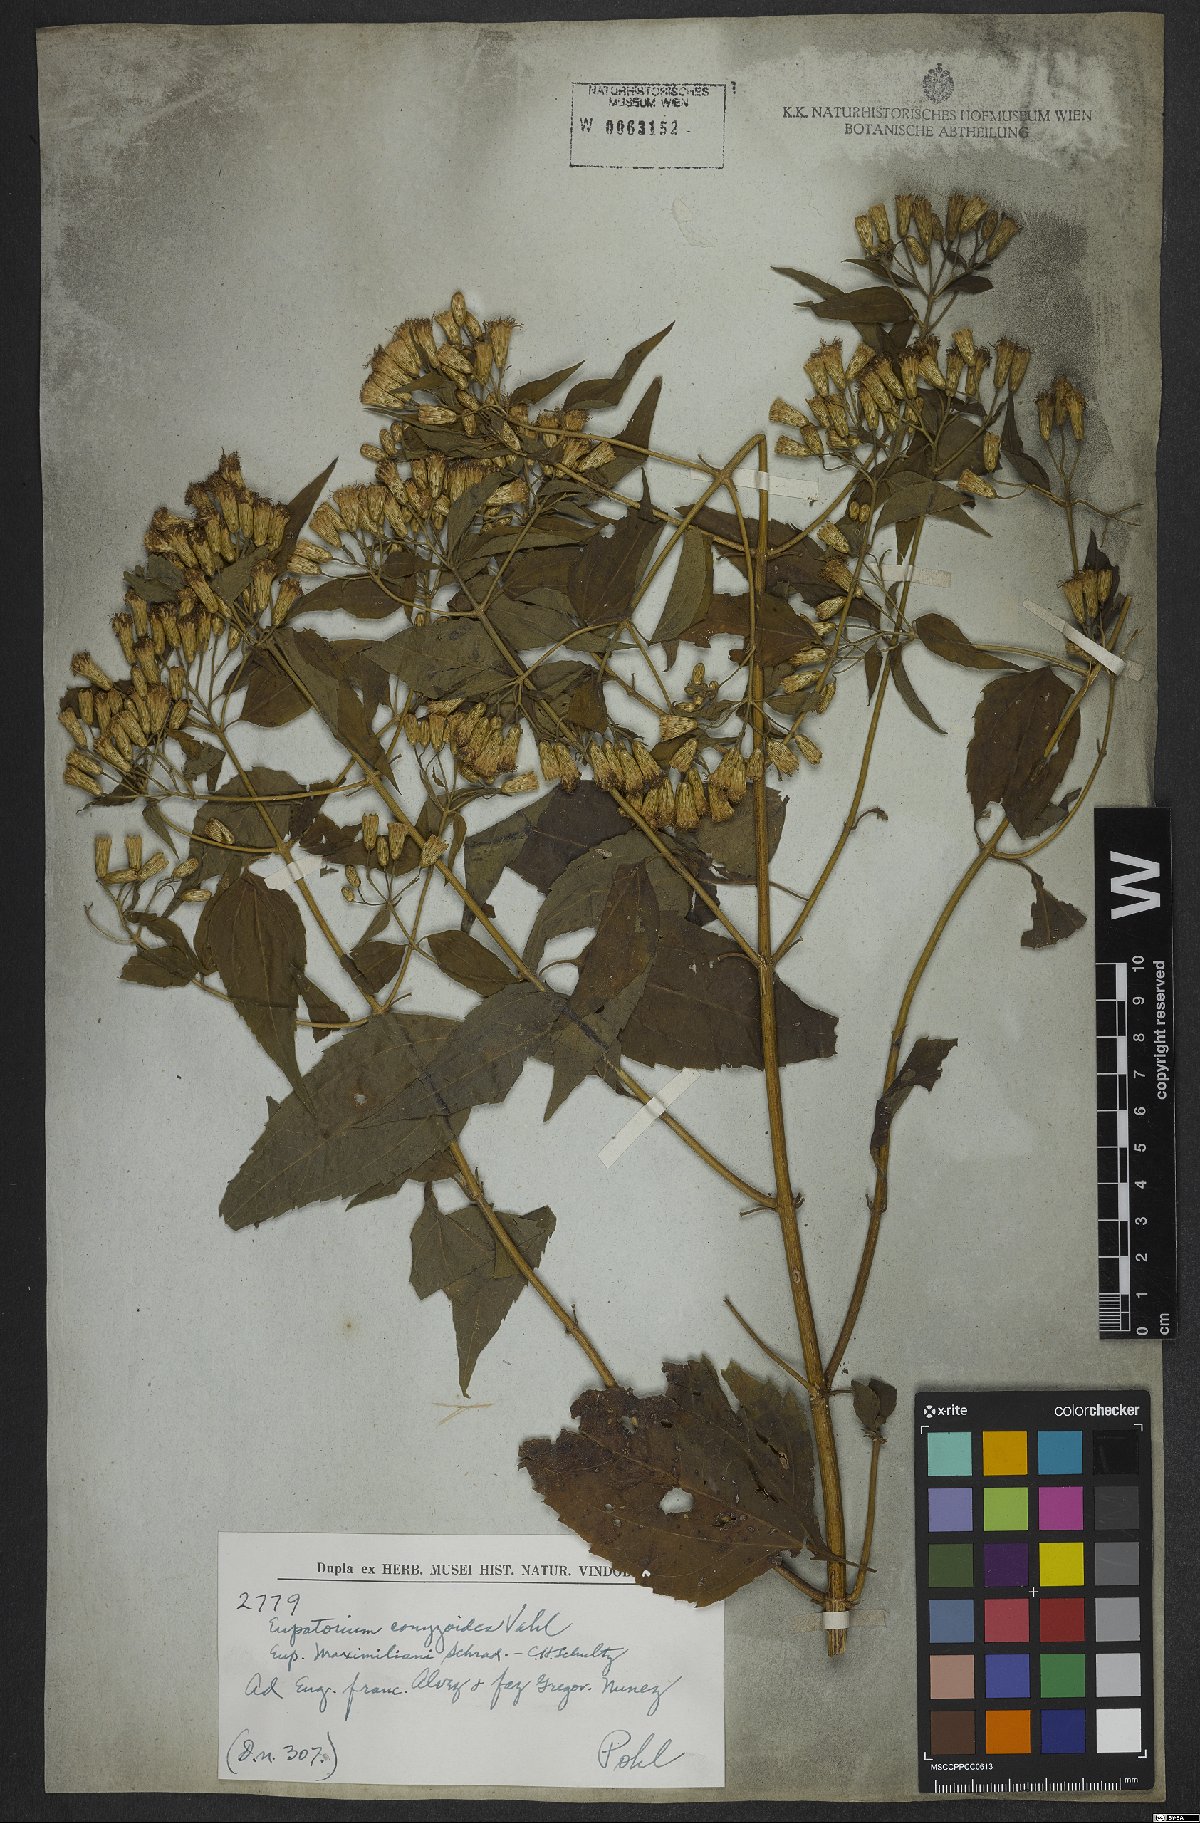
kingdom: Plantae
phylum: Tracheophyta
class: Magnoliopsida
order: Asterales
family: Asteraceae
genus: Chromolaena
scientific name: Chromolaena odorata
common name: Siamweed
